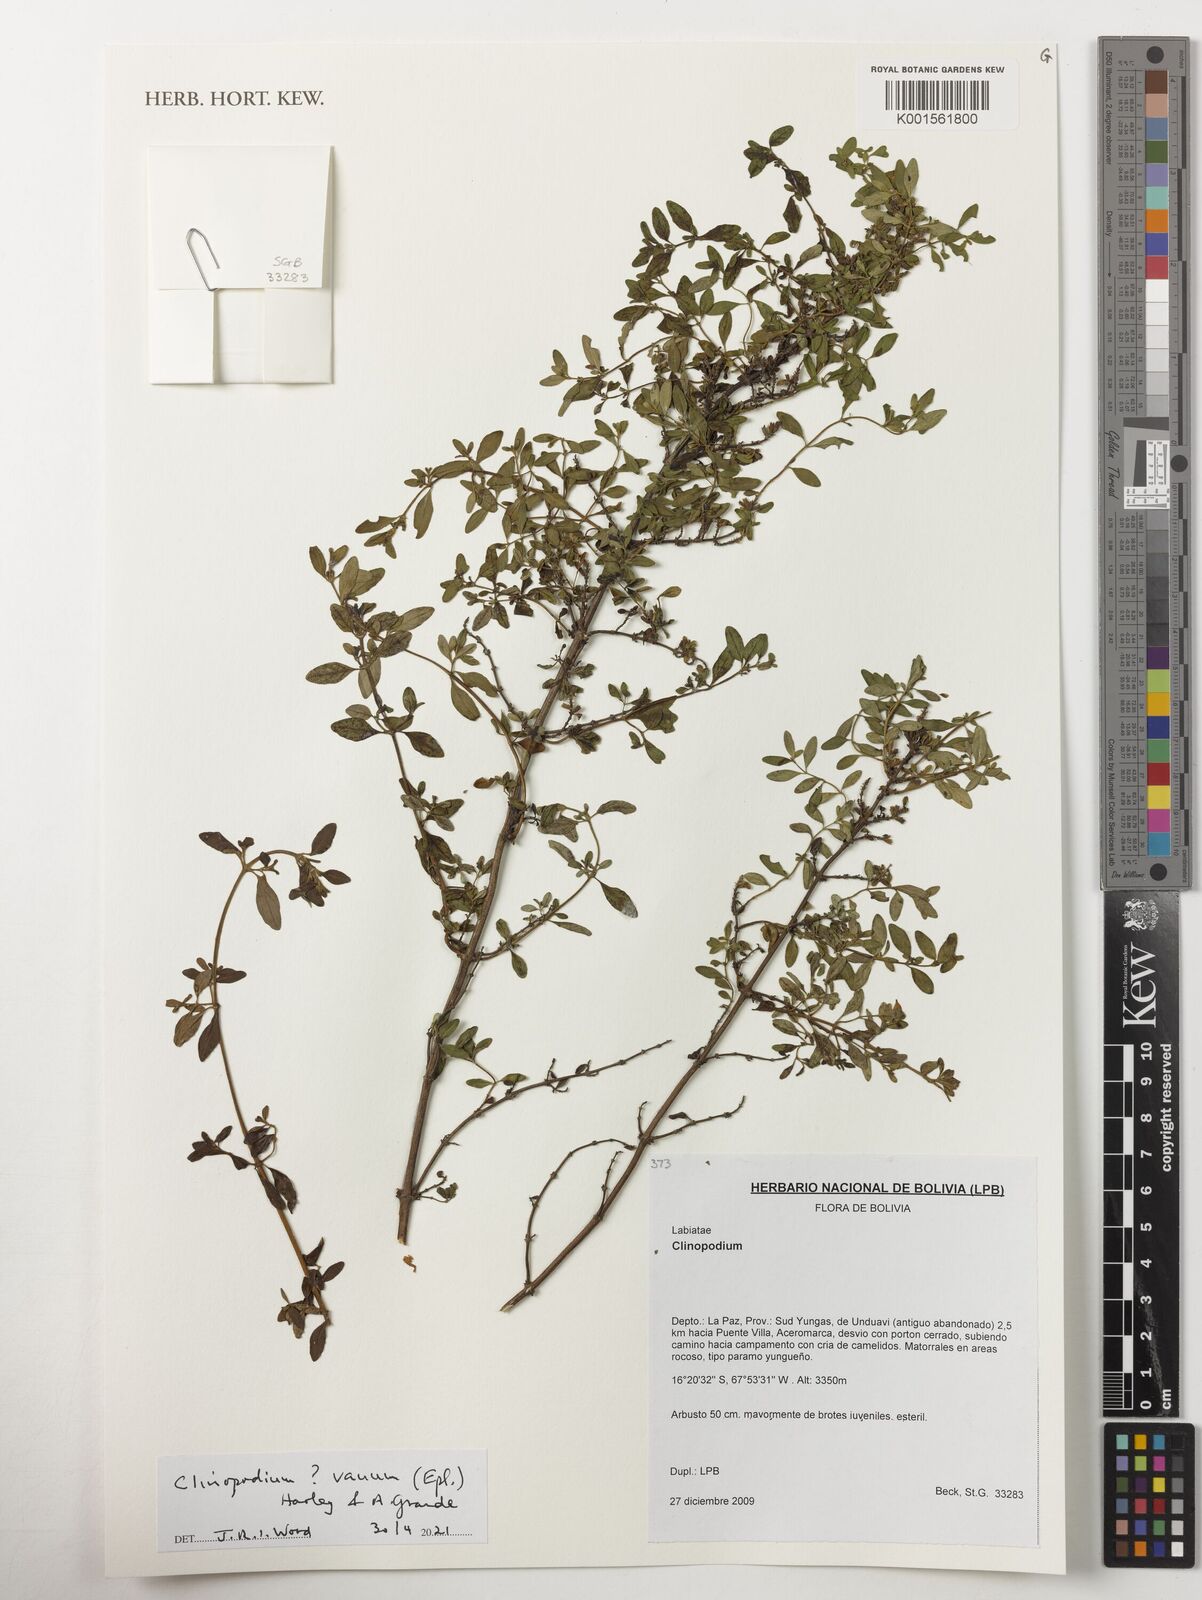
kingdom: Plantae
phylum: Tracheophyta
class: Magnoliopsida
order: Lamiales
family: Lamiaceae
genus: Clinopodium
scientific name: Clinopodium vanum
